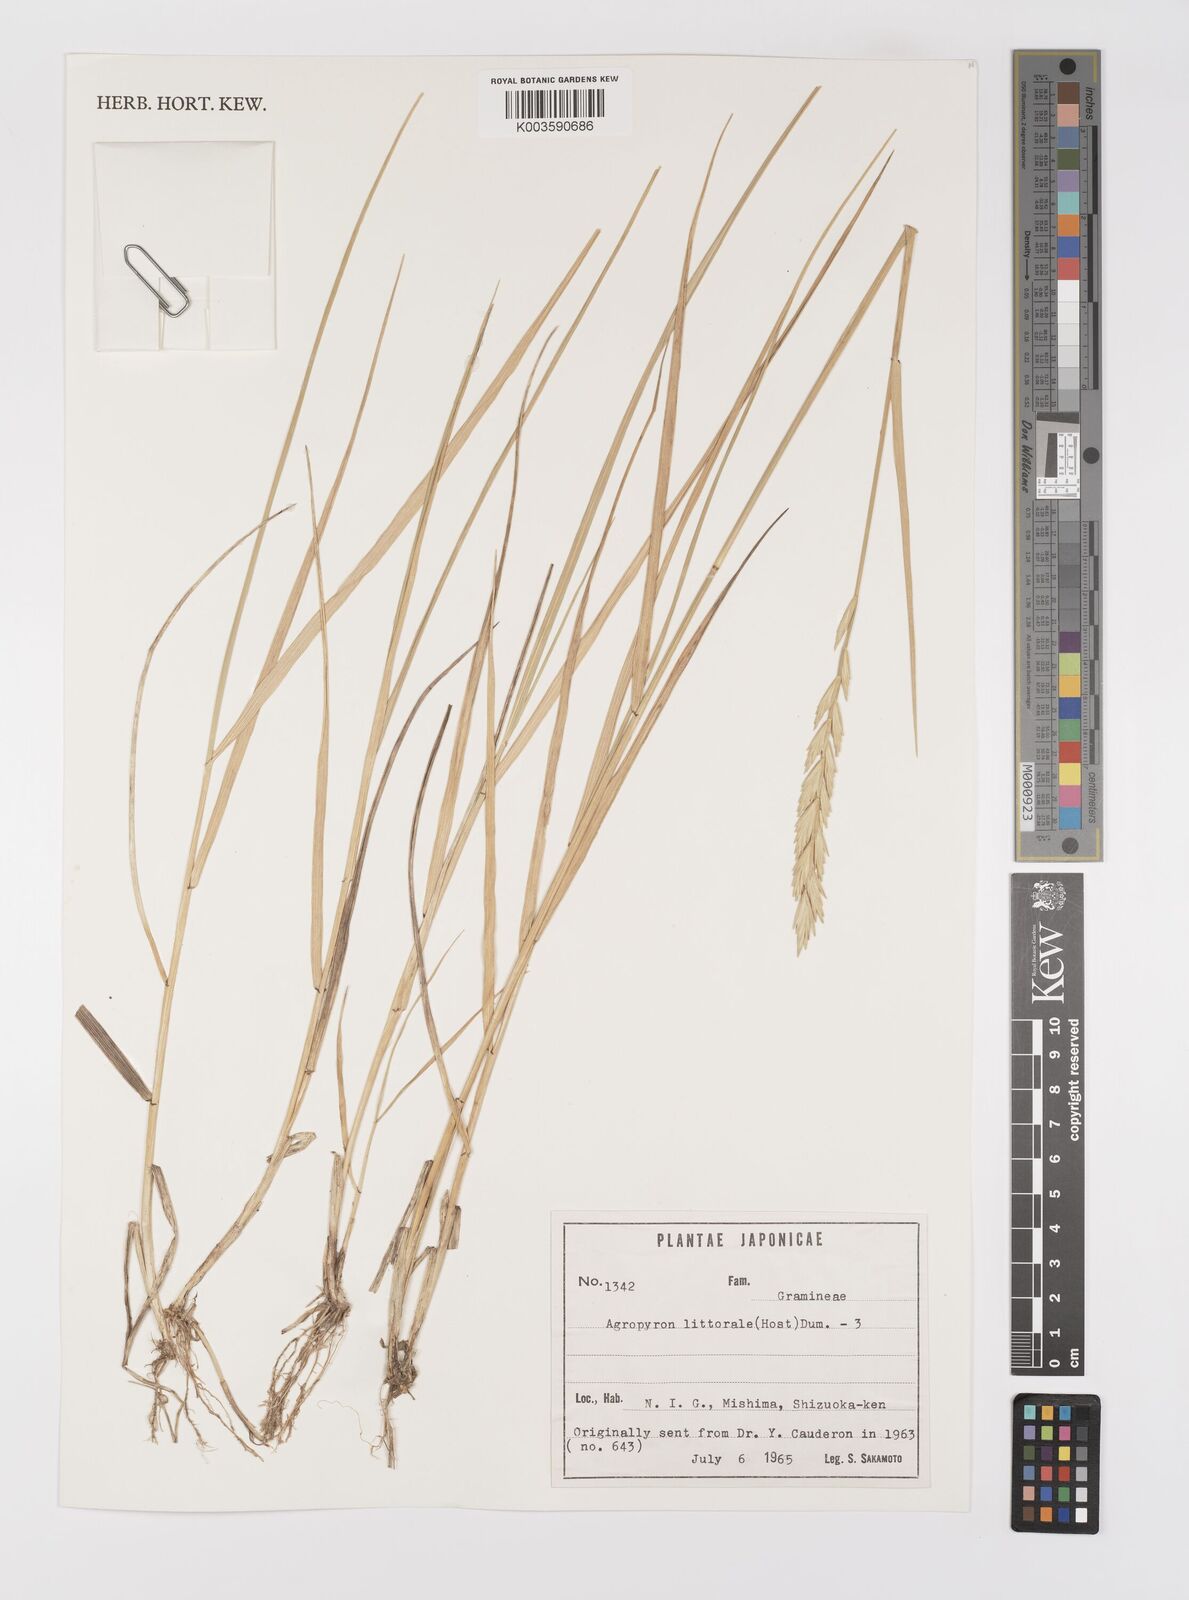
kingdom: Plantae
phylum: Tracheophyta
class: Liliopsida
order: Poales
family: Poaceae
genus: Elymus
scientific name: Elymus pungens
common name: Sea couch
